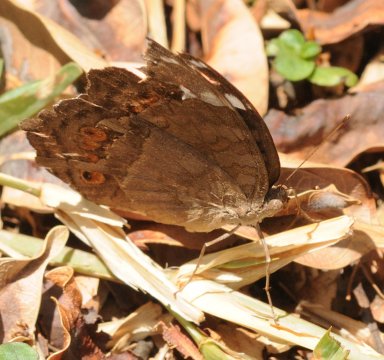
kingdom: Animalia
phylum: Arthropoda
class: Insecta
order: Lepidoptera
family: Nymphalidae
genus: Junonia
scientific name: Junonia natalica
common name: Natal Pansy
